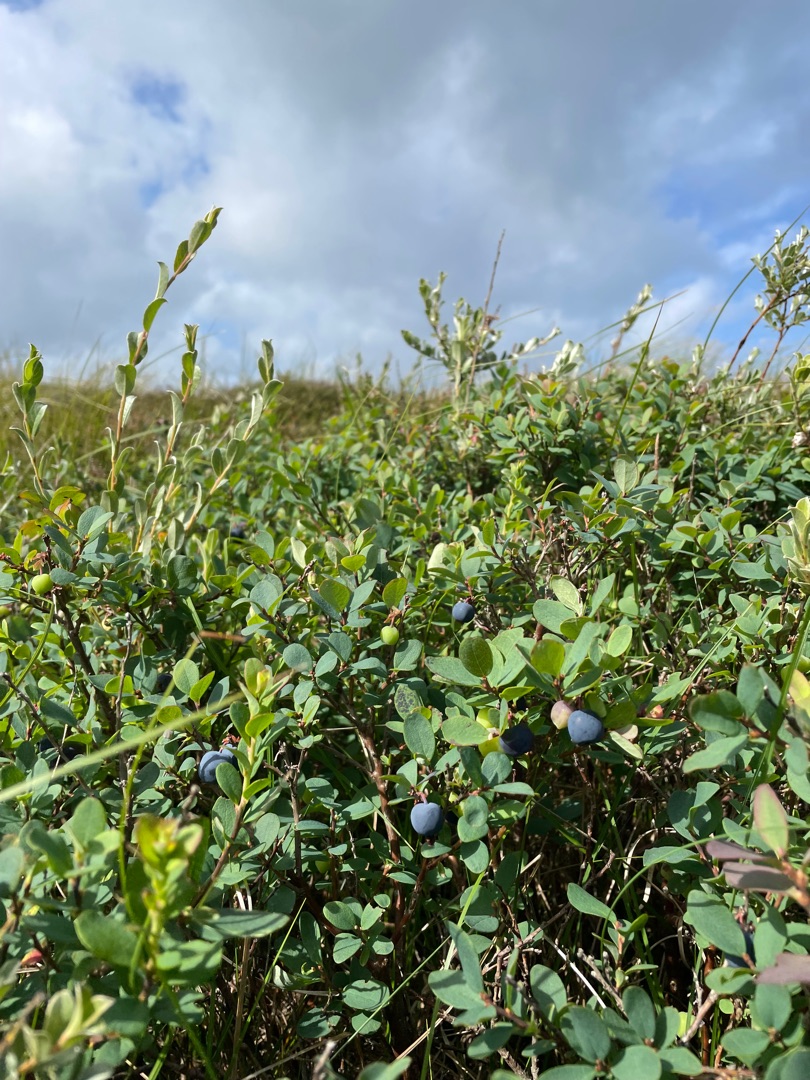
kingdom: Plantae
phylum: Tracheophyta
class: Magnoliopsida
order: Ericales
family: Ericaceae
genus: Vaccinium
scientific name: Vaccinium uliginosum
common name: Mose-bølle
